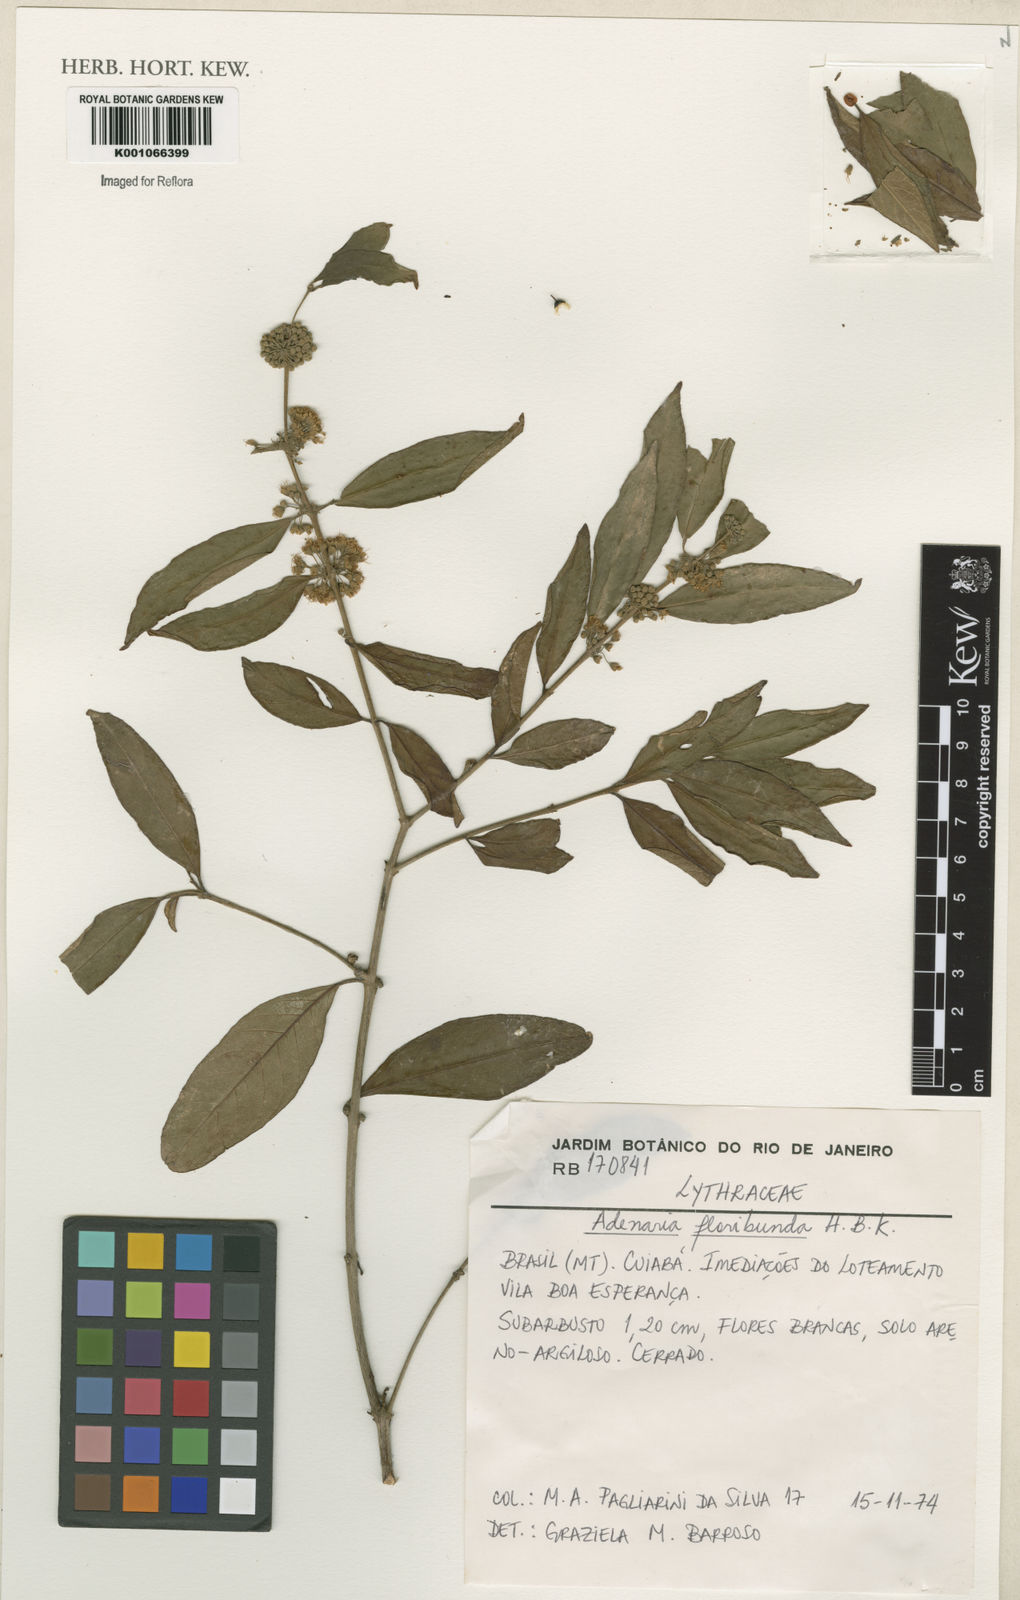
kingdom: Plantae
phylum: Tracheophyta
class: Magnoliopsida
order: Myrtales
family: Lythraceae
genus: Adenaria
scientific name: Adenaria floribunda
